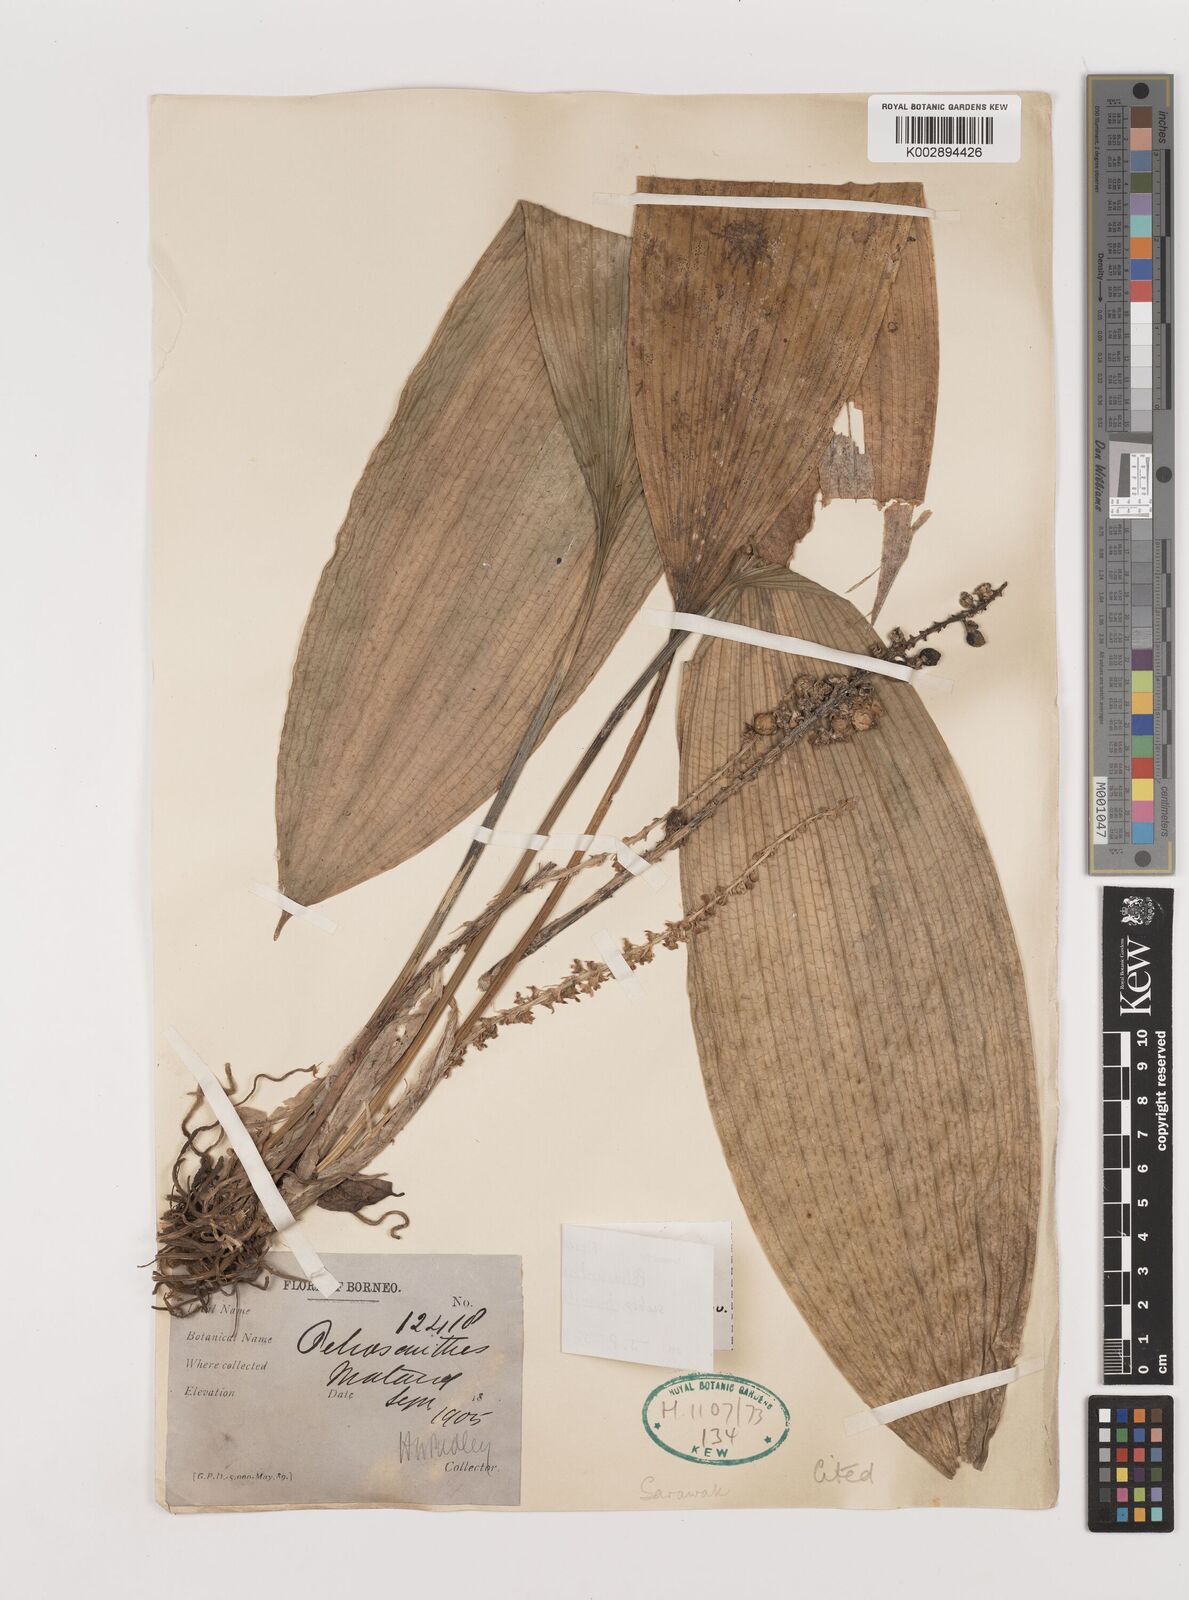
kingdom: Plantae
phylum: Tracheophyta
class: Liliopsida
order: Asparagales
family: Asparagaceae
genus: Peliosanthes
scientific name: Peliosanthes teta
